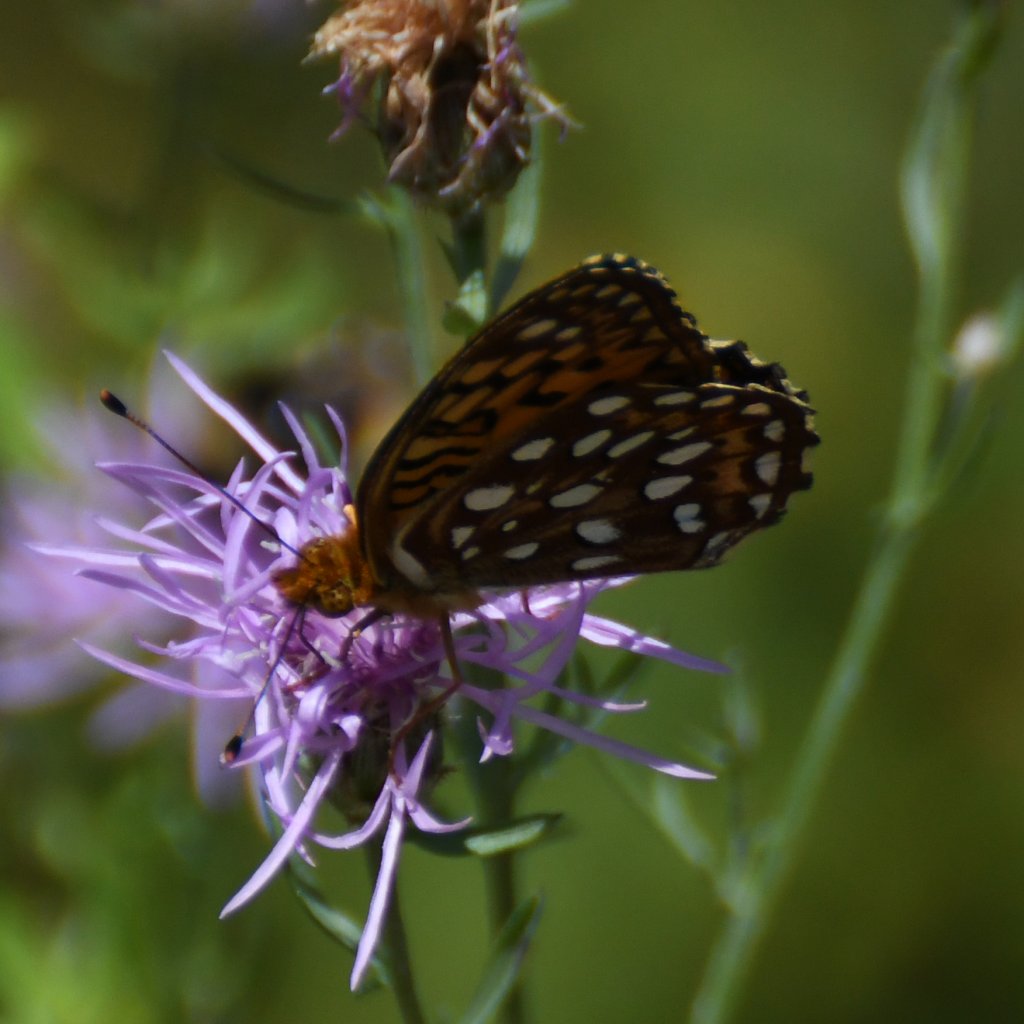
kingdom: Animalia
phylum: Arthropoda
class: Insecta
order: Lepidoptera
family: Nymphalidae
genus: Speyeria
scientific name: Speyeria aphrodite
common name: Aphrodite Fritillary
